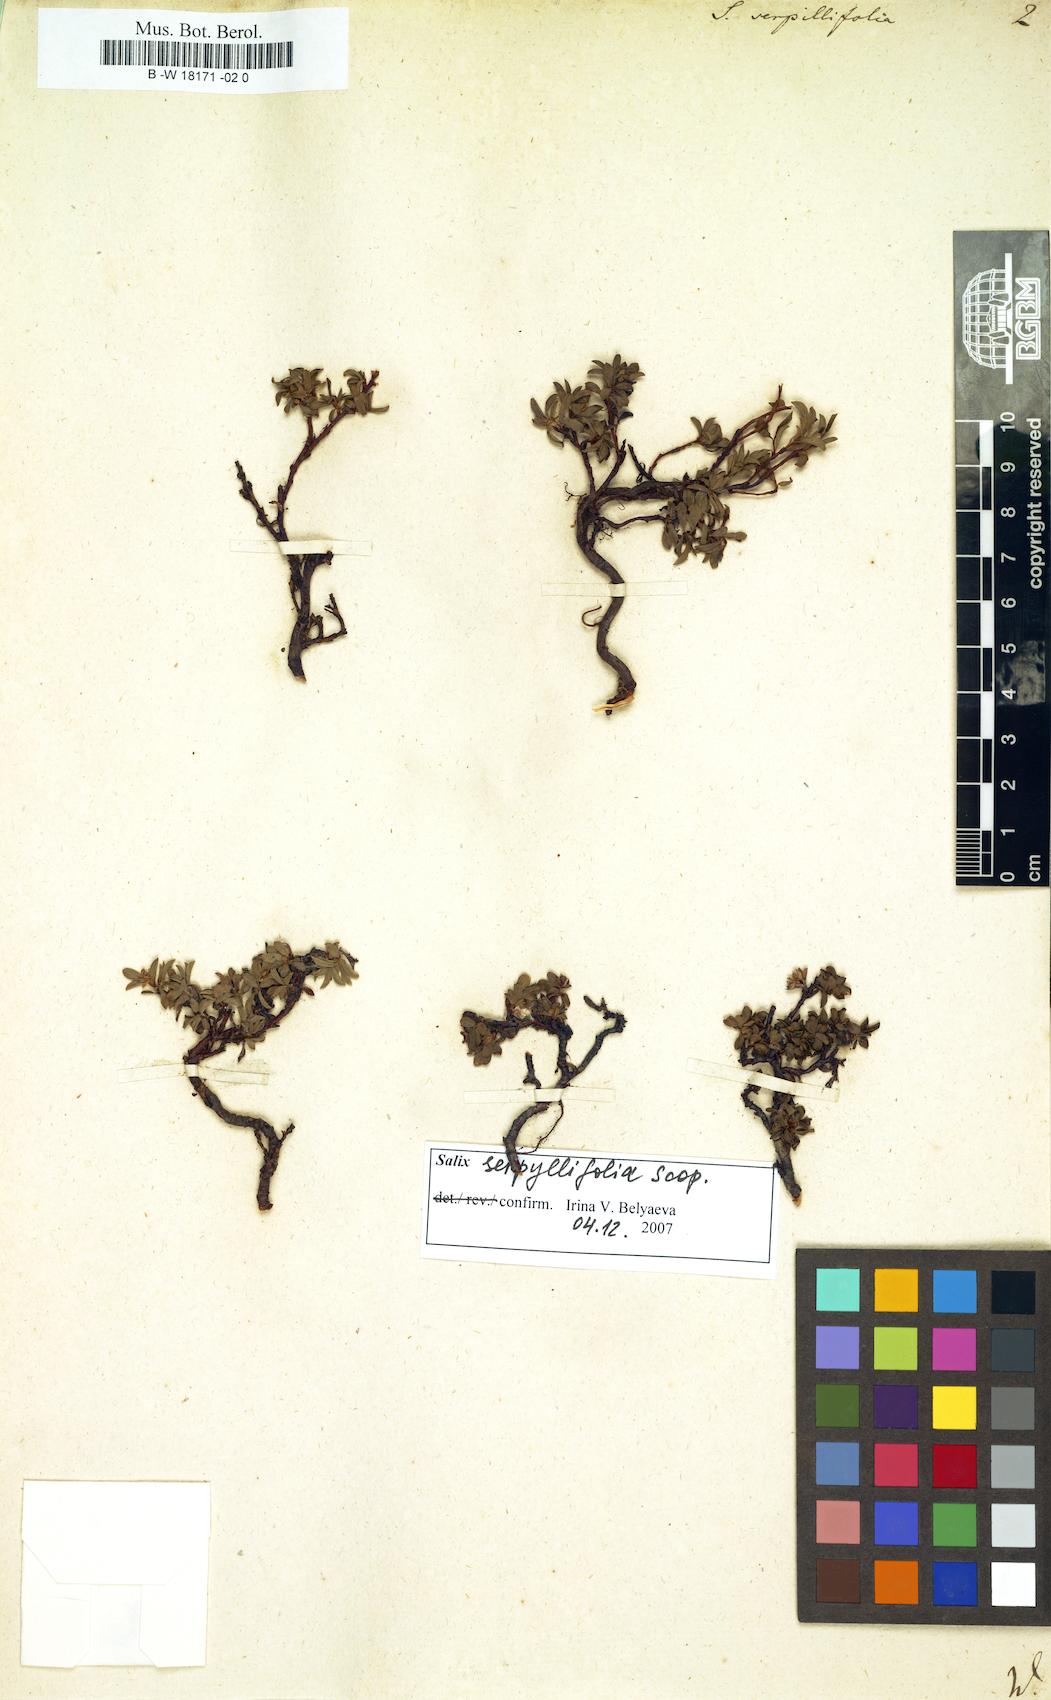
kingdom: Plantae
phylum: Tracheophyta
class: Magnoliopsida
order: Malpighiales
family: Salicaceae
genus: Salix
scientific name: Salix serpillifolia
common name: Thyme-leaf willow
